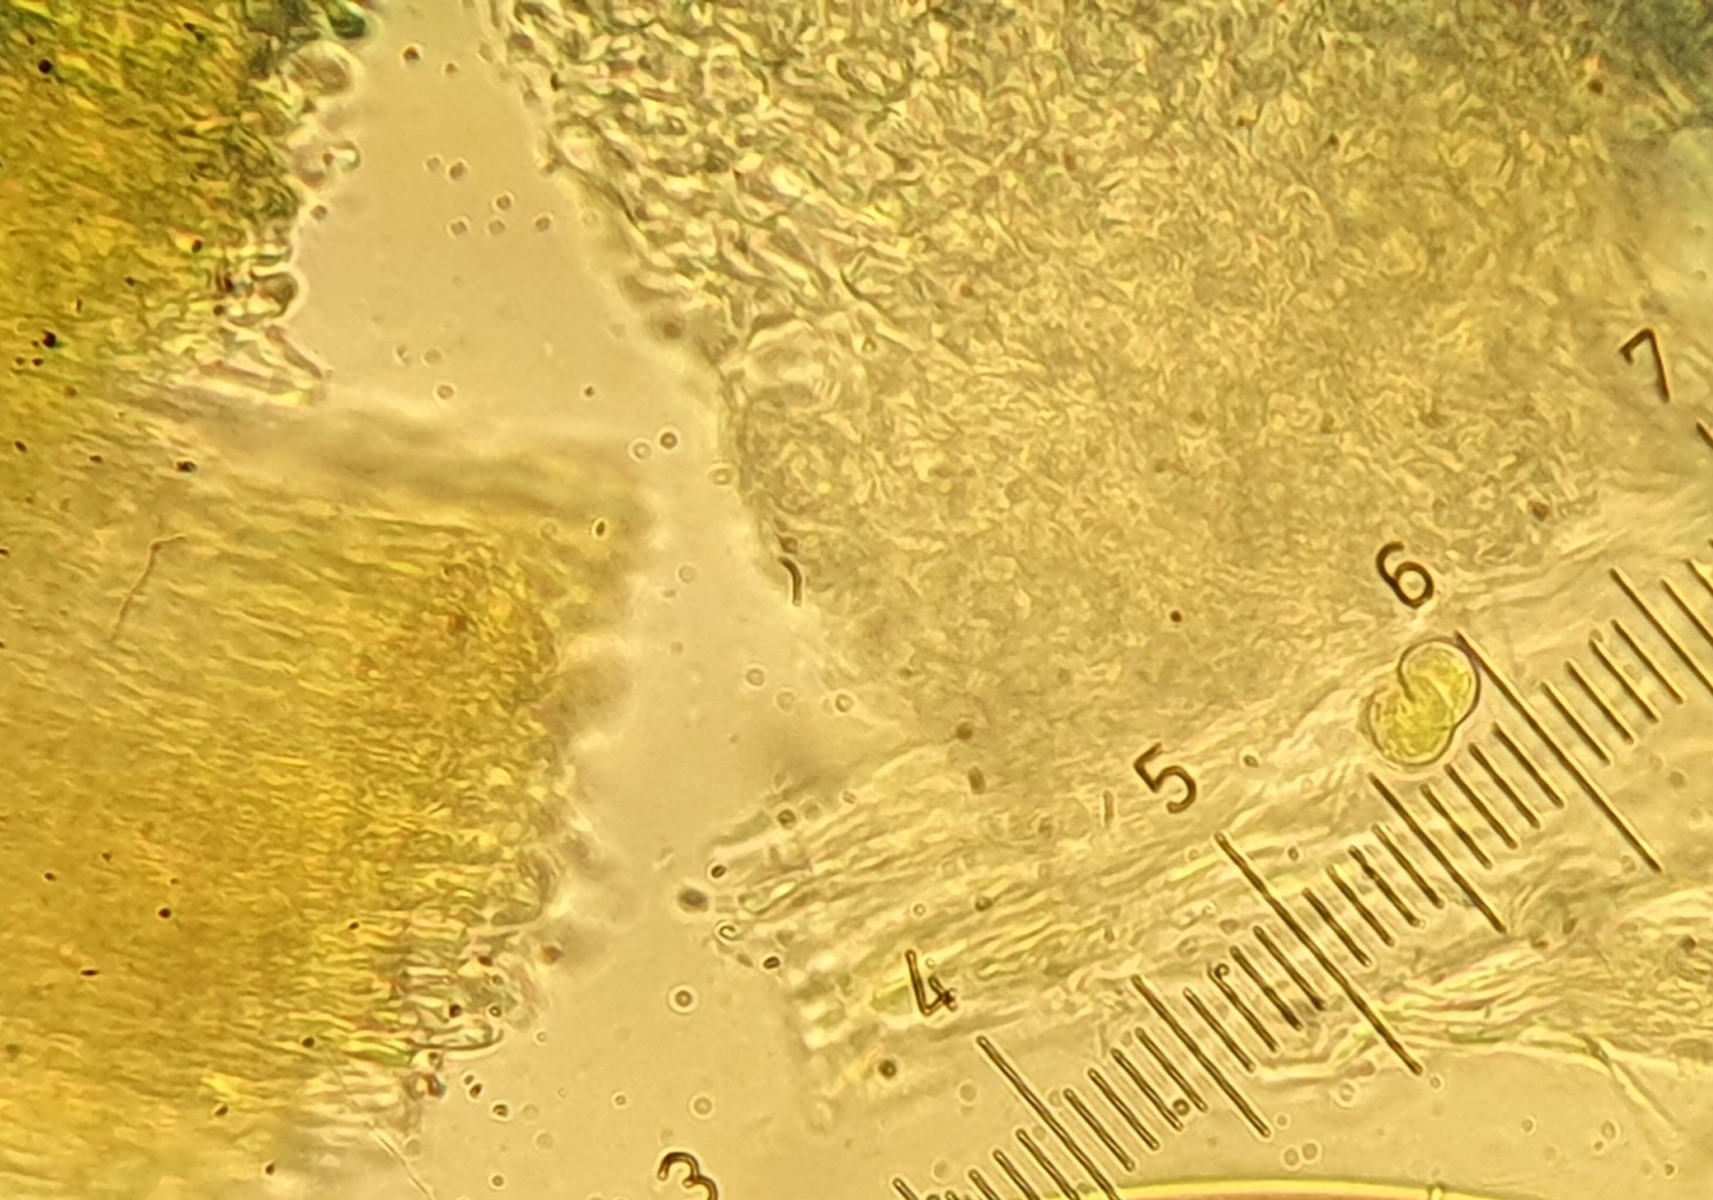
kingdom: Fungi
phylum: Ascomycota
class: Leotiomycetes
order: Helotiales
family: Pezizellaceae
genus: Calycina
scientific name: Calycina
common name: gulskive
